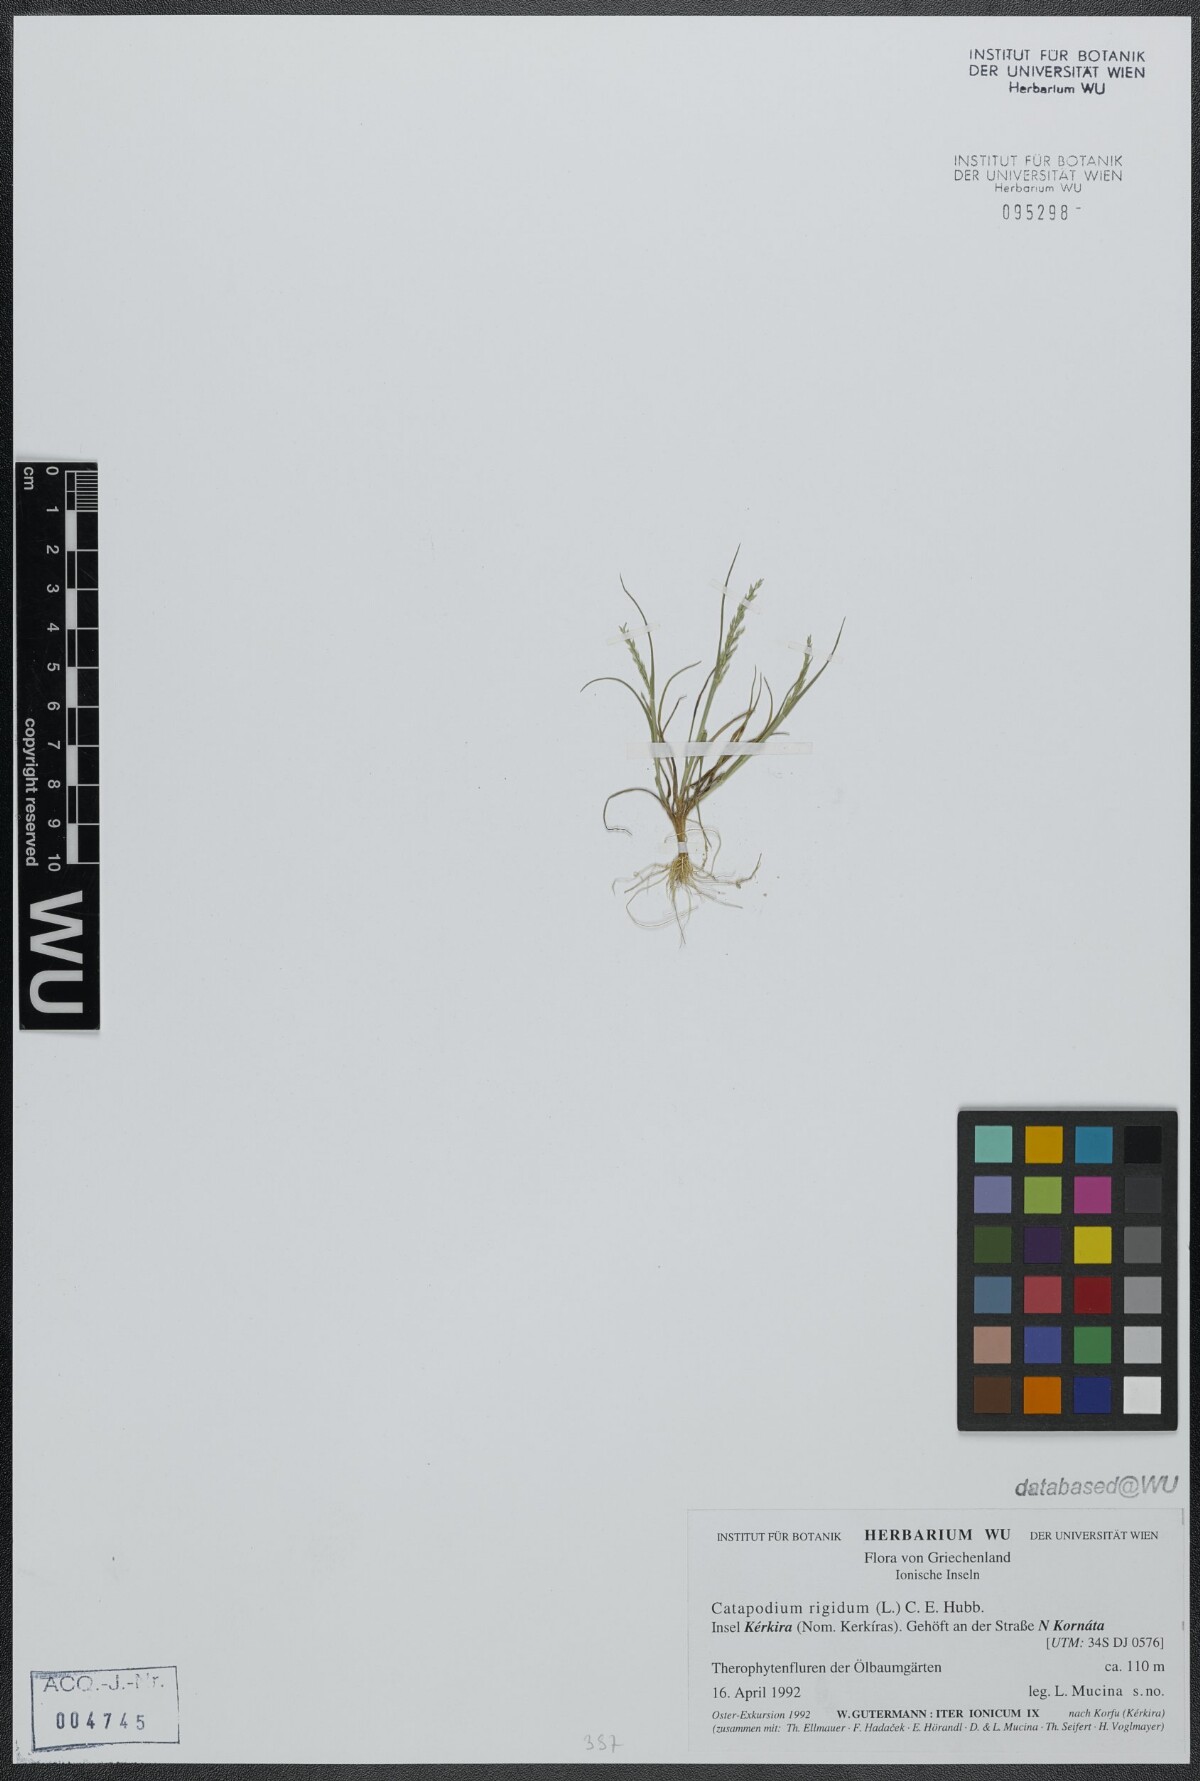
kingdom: Plantae
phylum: Tracheophyta
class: Liliopsida
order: Poales
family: Poaceae
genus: Catapodium
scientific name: Catapodium rigidum
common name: Fern-grass
